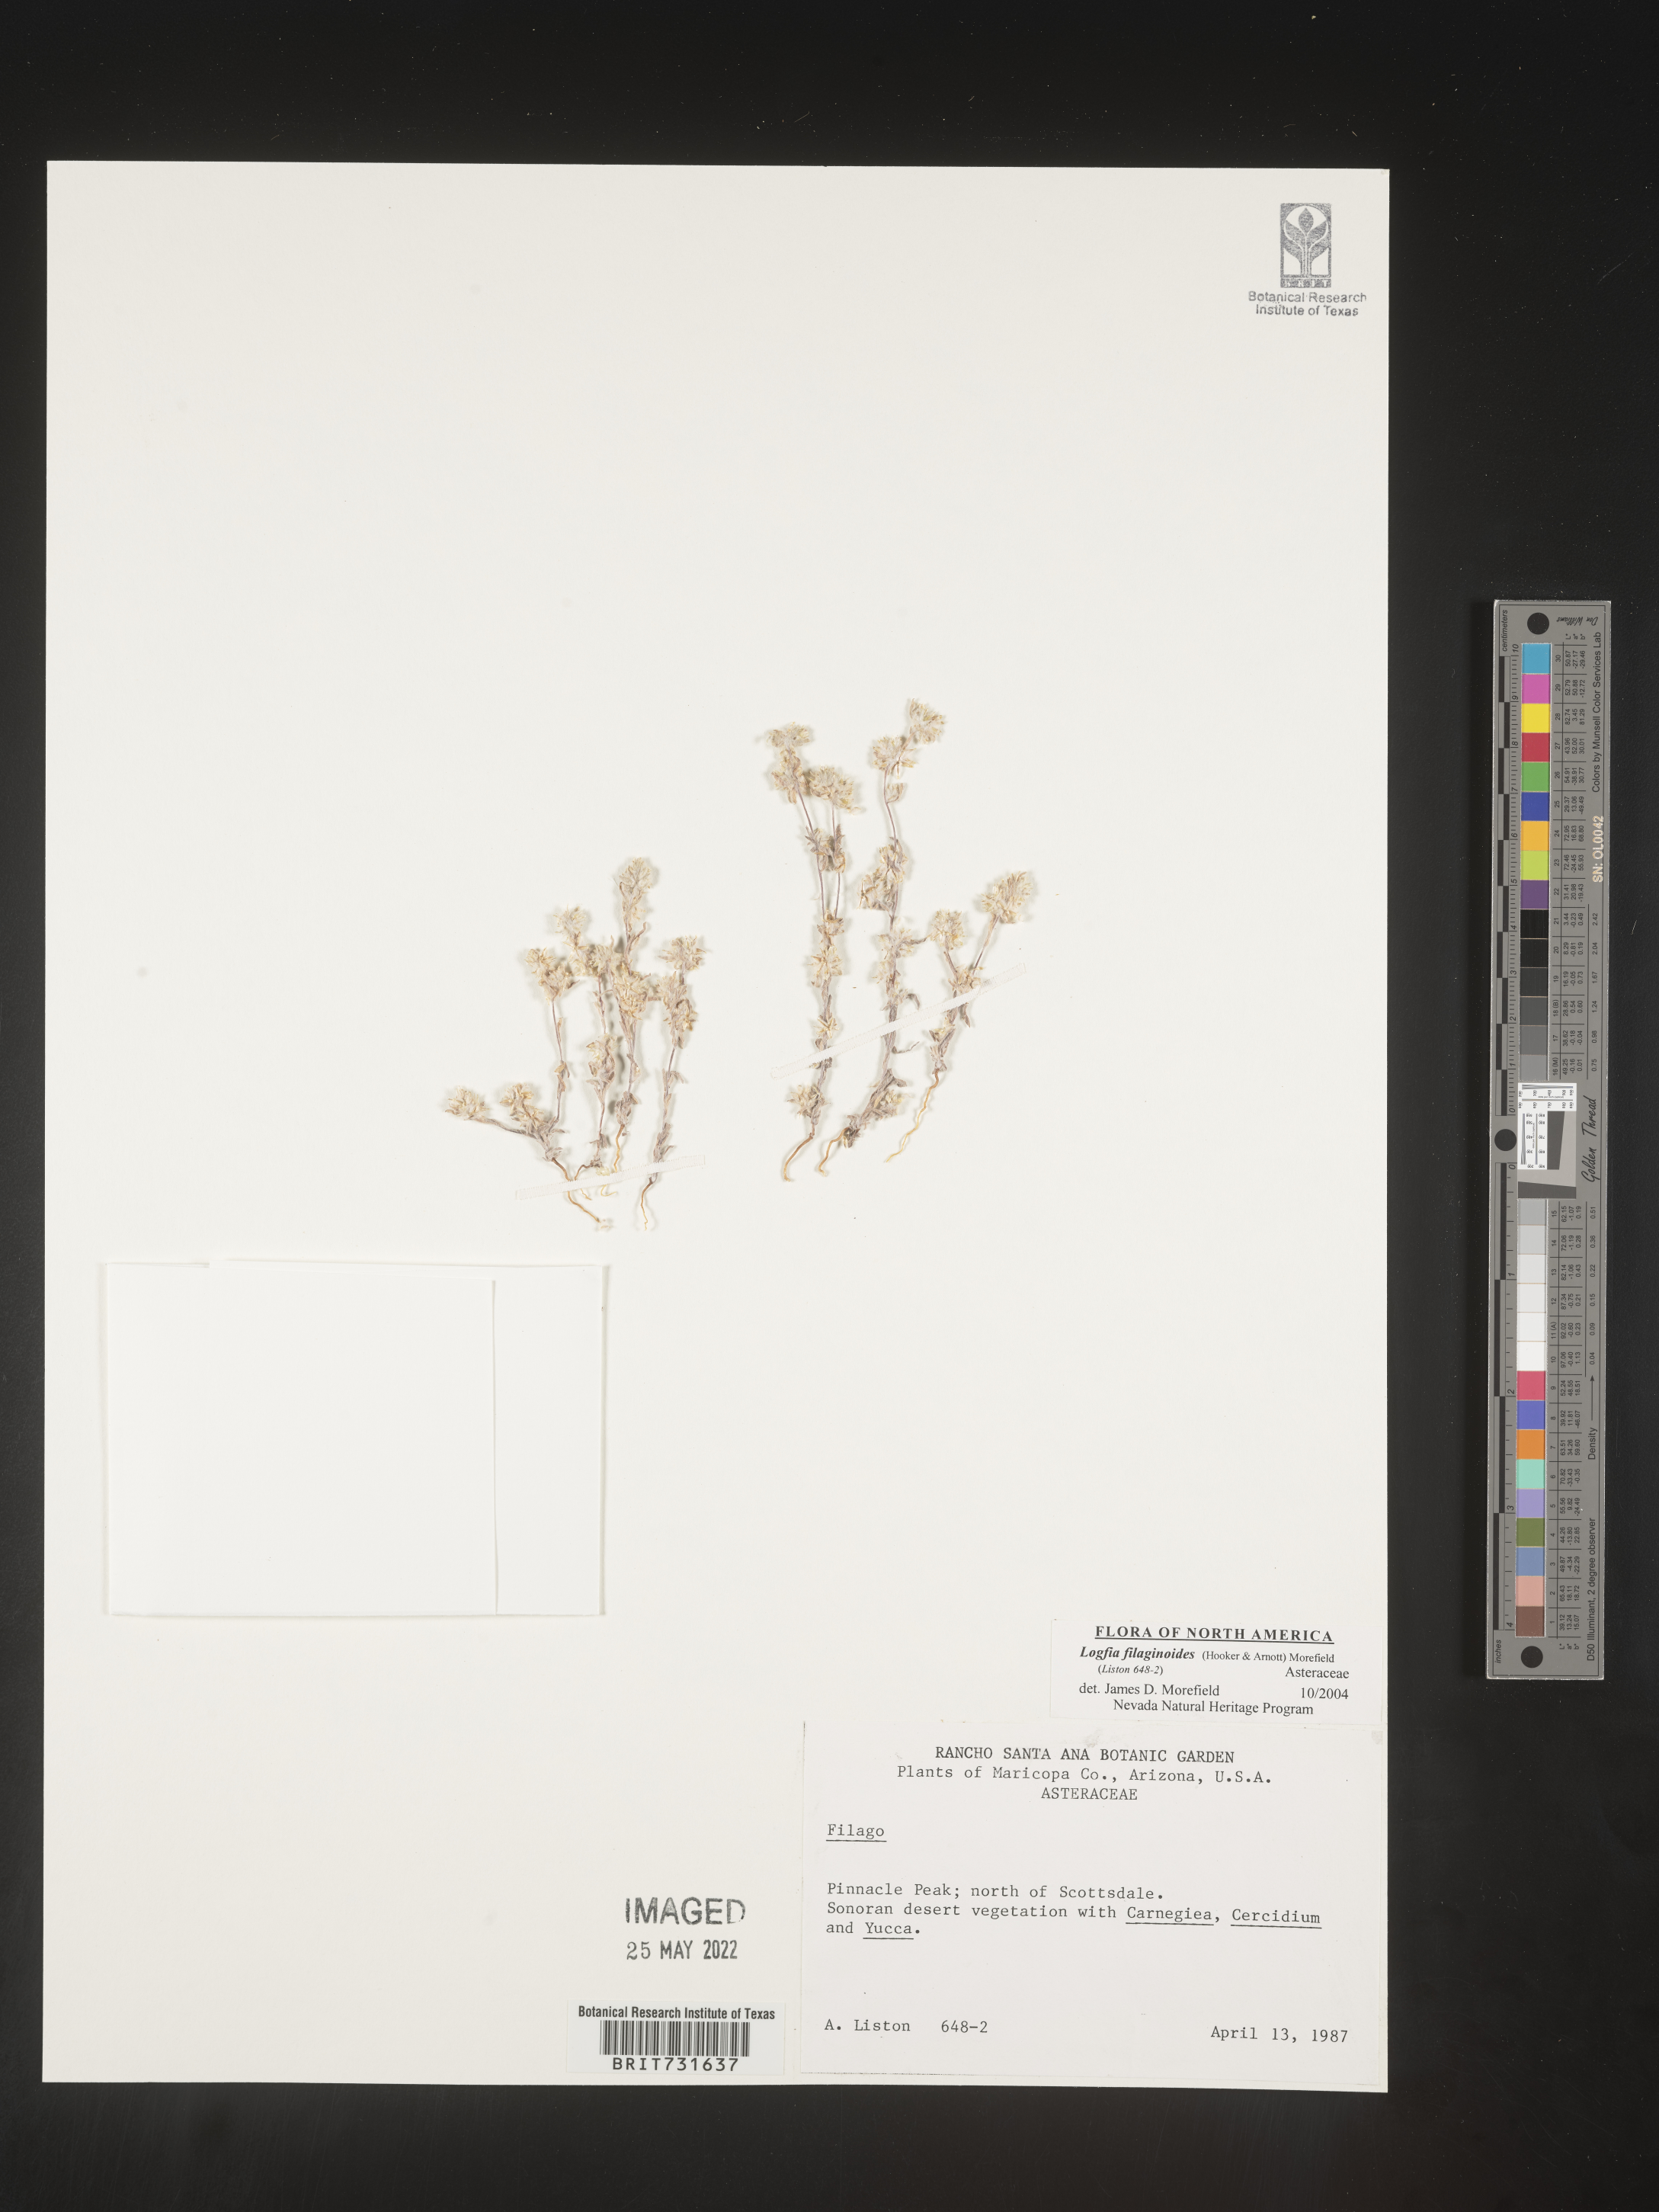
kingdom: Plantae
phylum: Tracheophyta
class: Magnoliopsida
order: Asterales
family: Asteraceae
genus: Logfia
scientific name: Logfia
